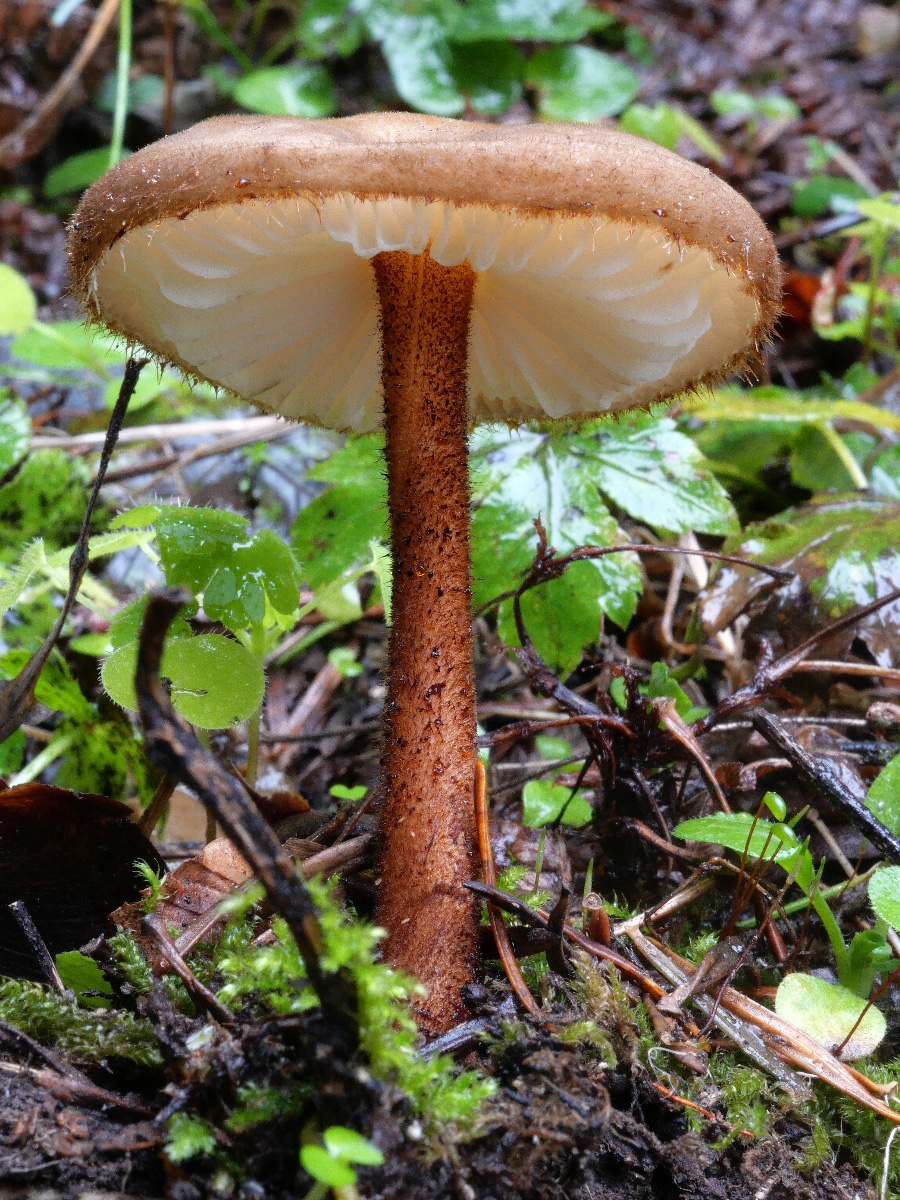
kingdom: Fungi
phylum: Basidiomycota
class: Agaricomycetes
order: Agaricales
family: Physalacriaceae
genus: Oudemansiella
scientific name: Oudemansiella melanotricha
